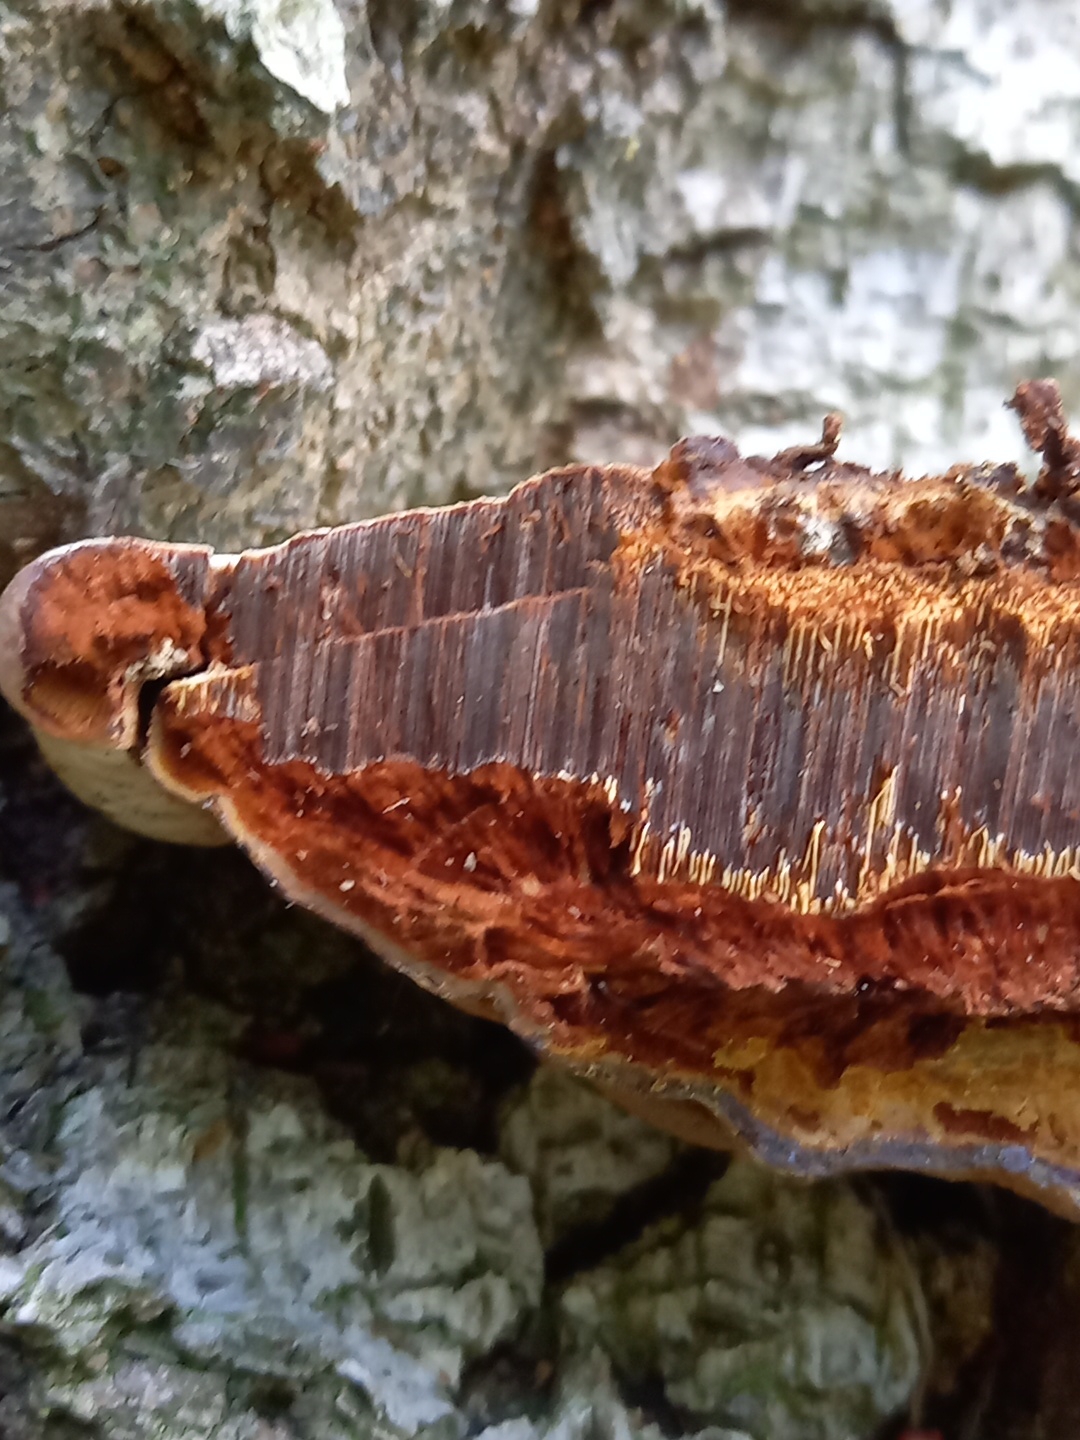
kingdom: Fungi
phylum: Basidiomycota
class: Agaricomycetes
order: Polyporales
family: Polyporaceae
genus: Ganoderma
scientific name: Ganoderma
